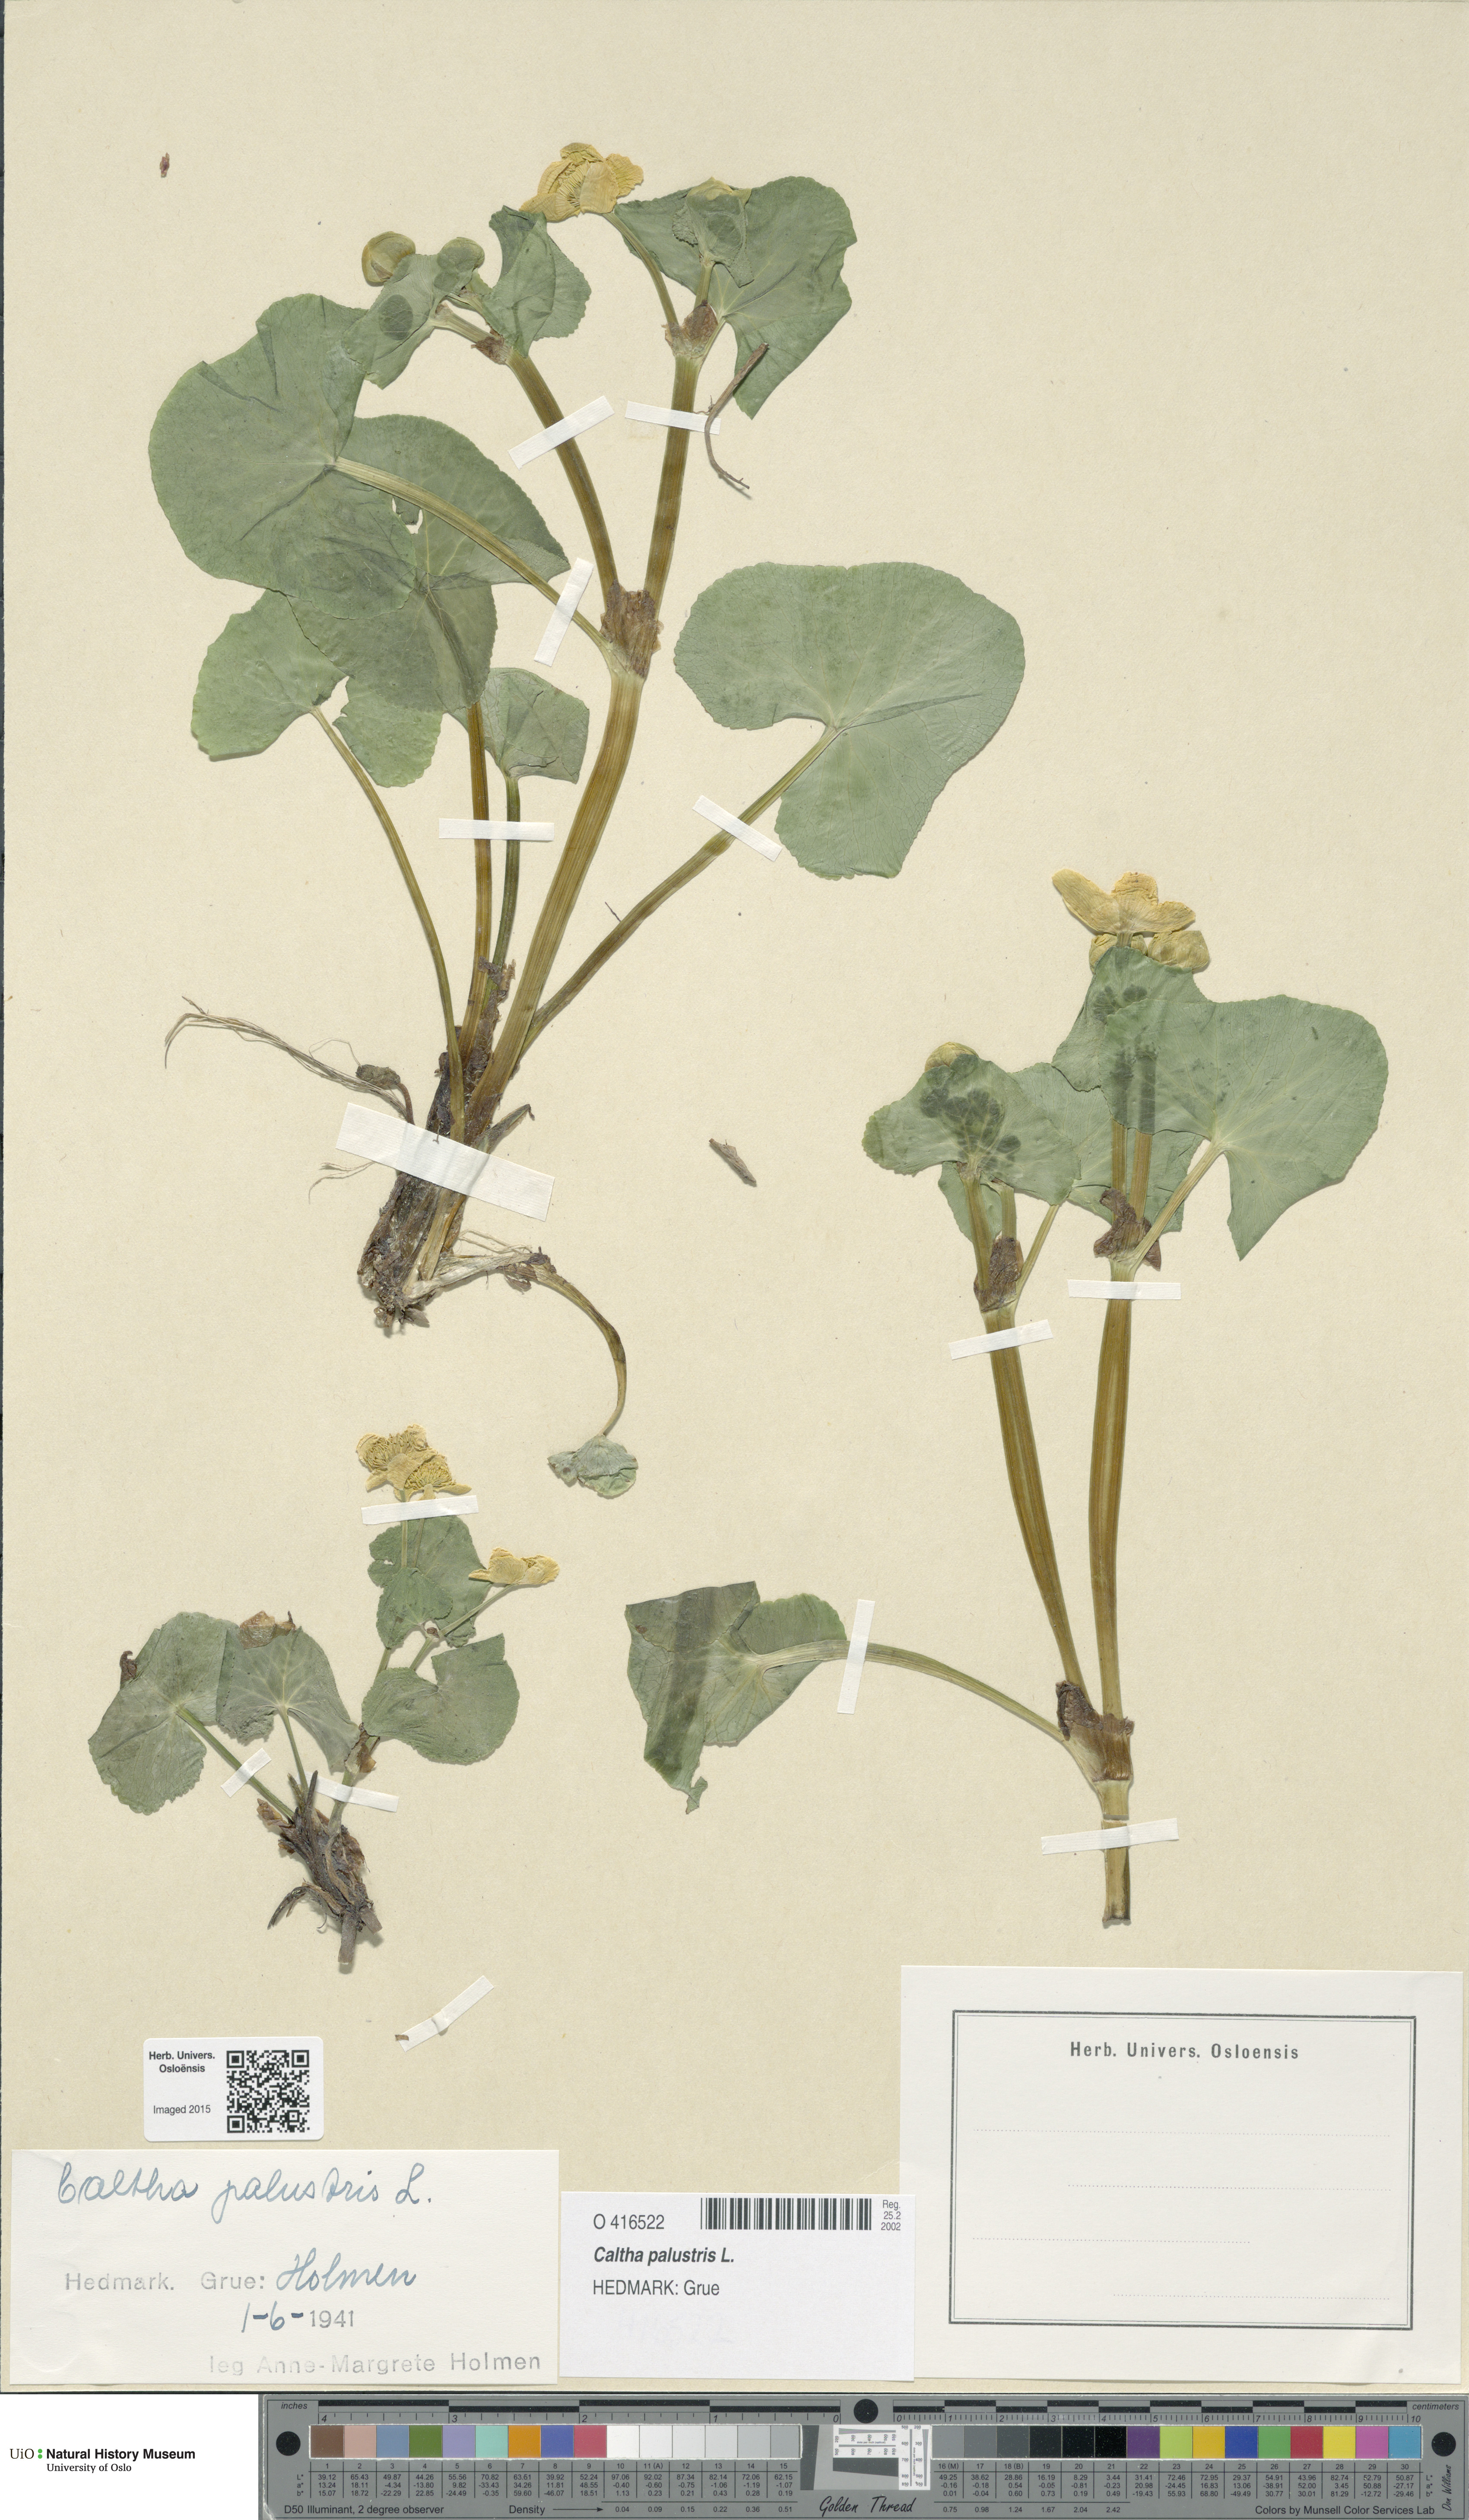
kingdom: Plantae
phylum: Tracheophyta
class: Magnoliopsida
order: Ranunculales
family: Ranunculaceae
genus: Caltha
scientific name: Caltha palustris
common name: Marsh marigold
